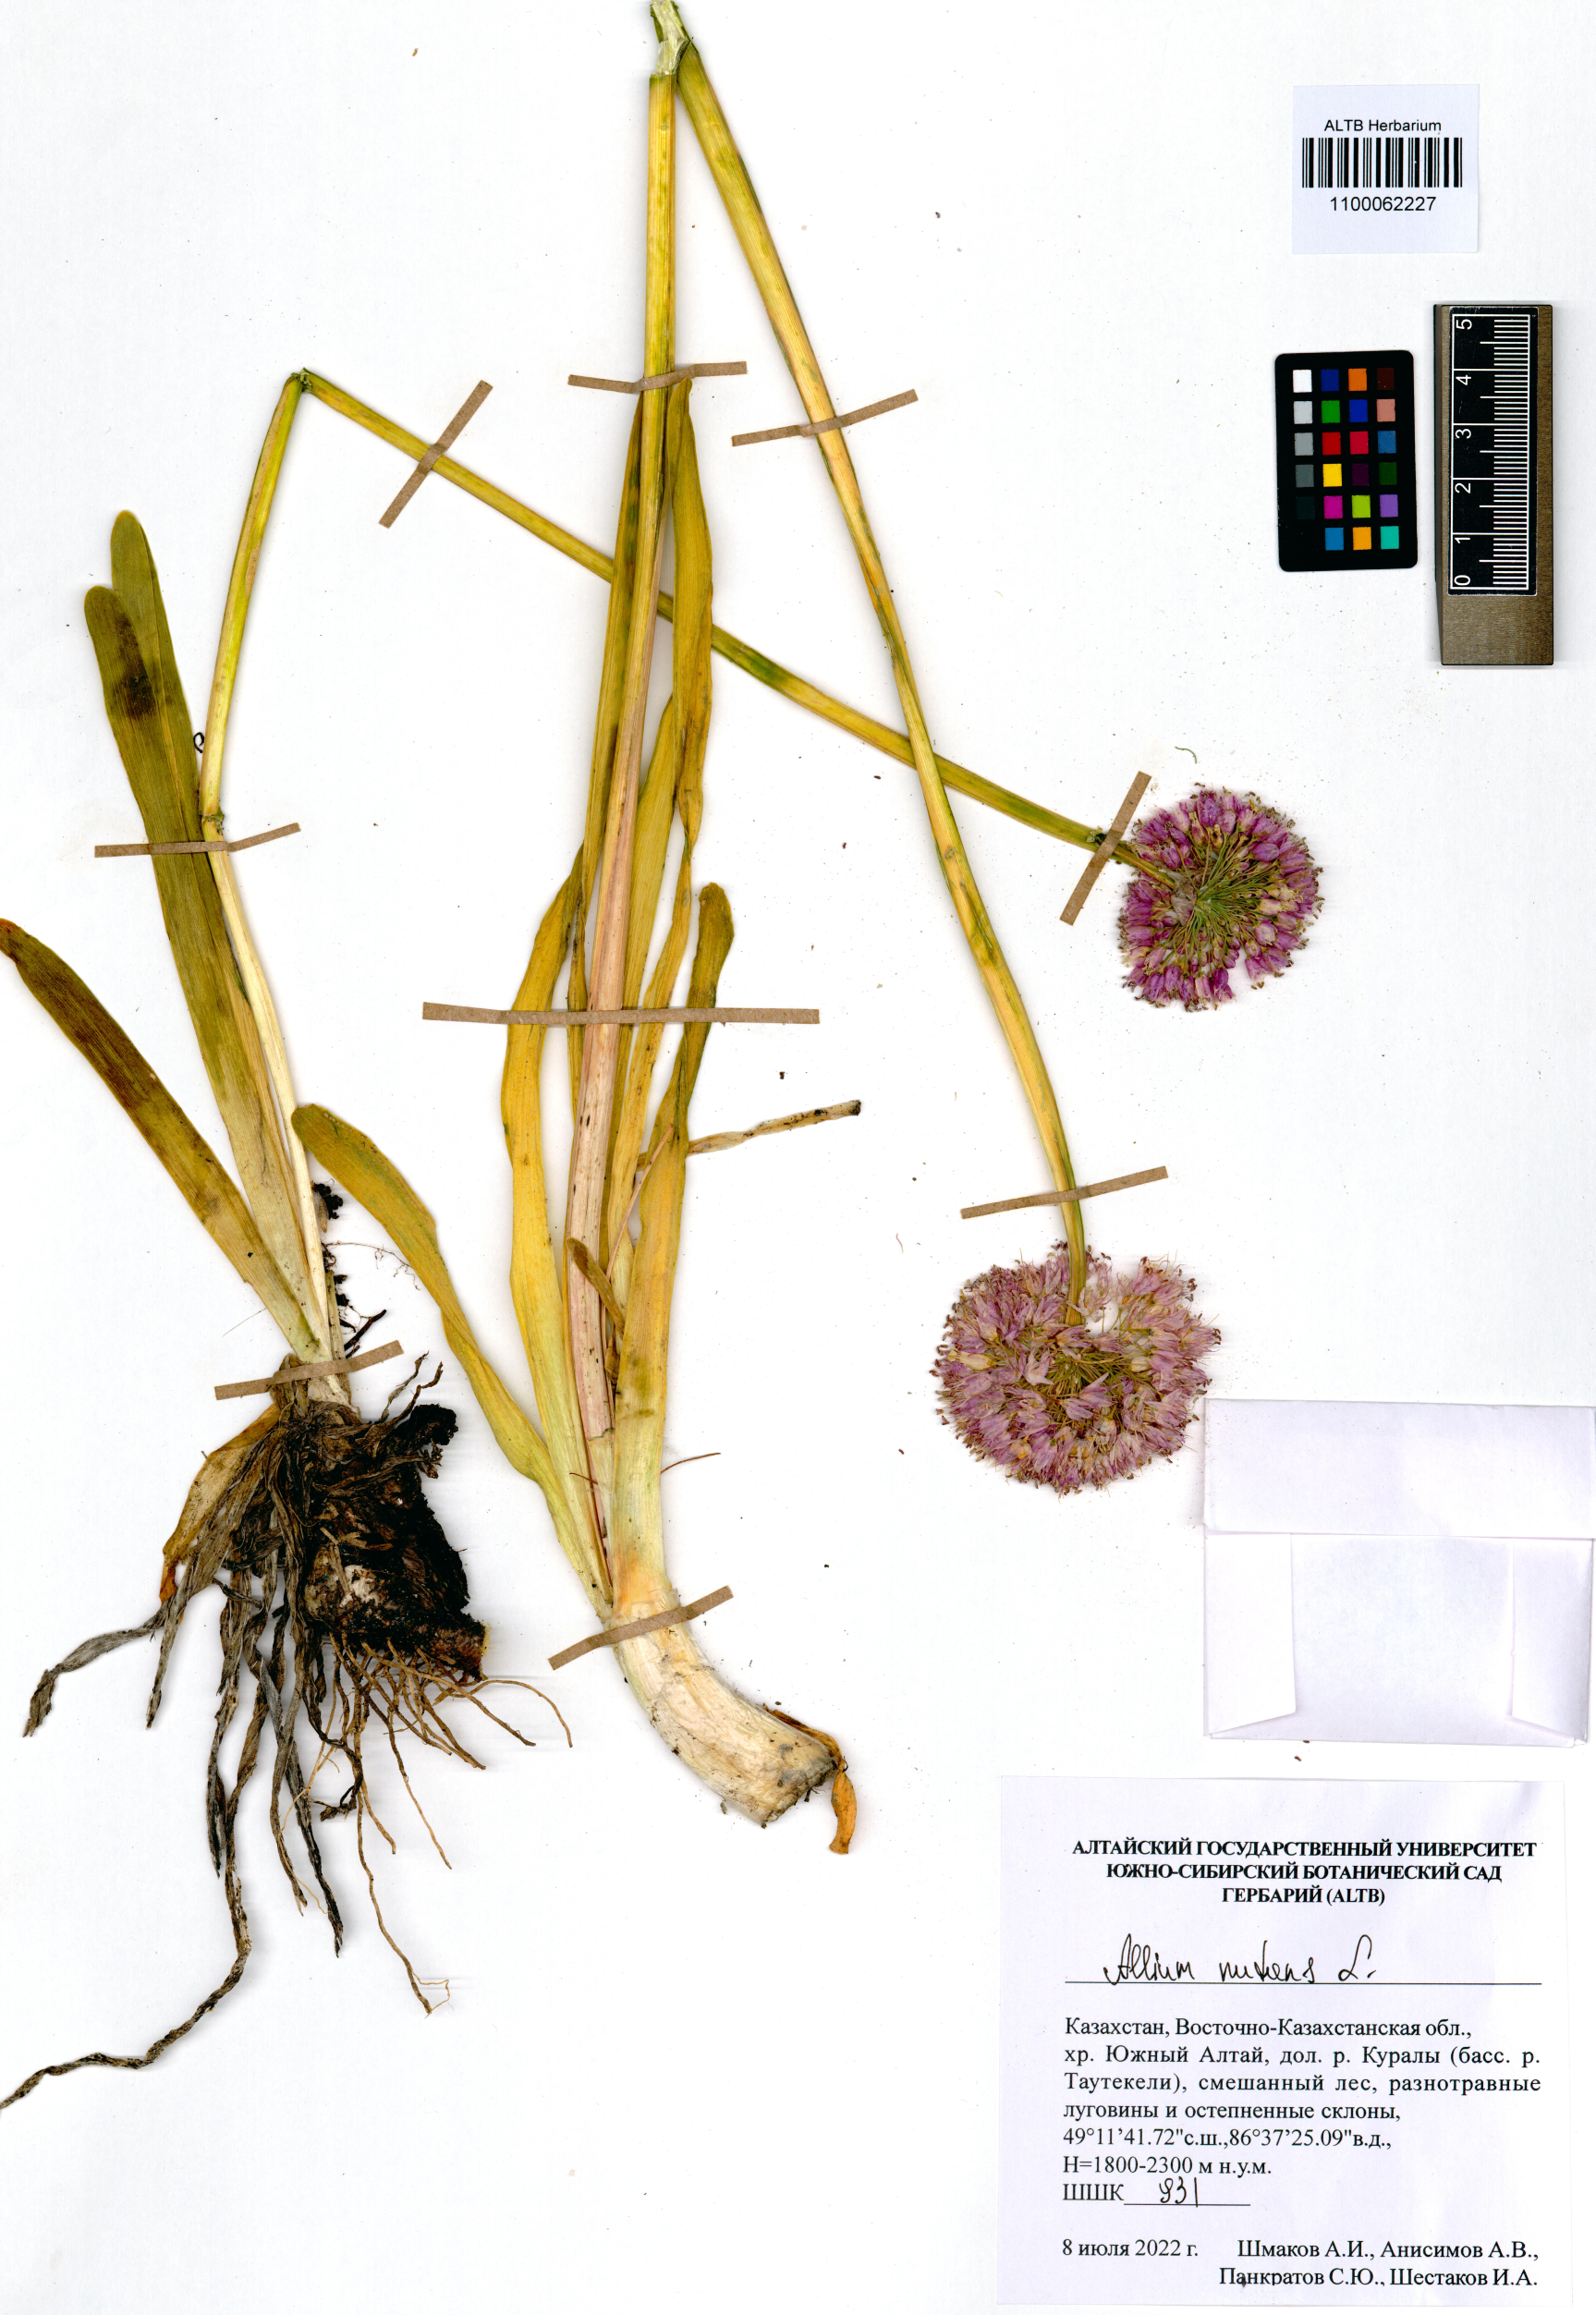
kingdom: Plantae
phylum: Tracheophyta
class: Liliopsida
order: Asparagales
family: Amaryllidaceae
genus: Allium
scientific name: Allium nutans
